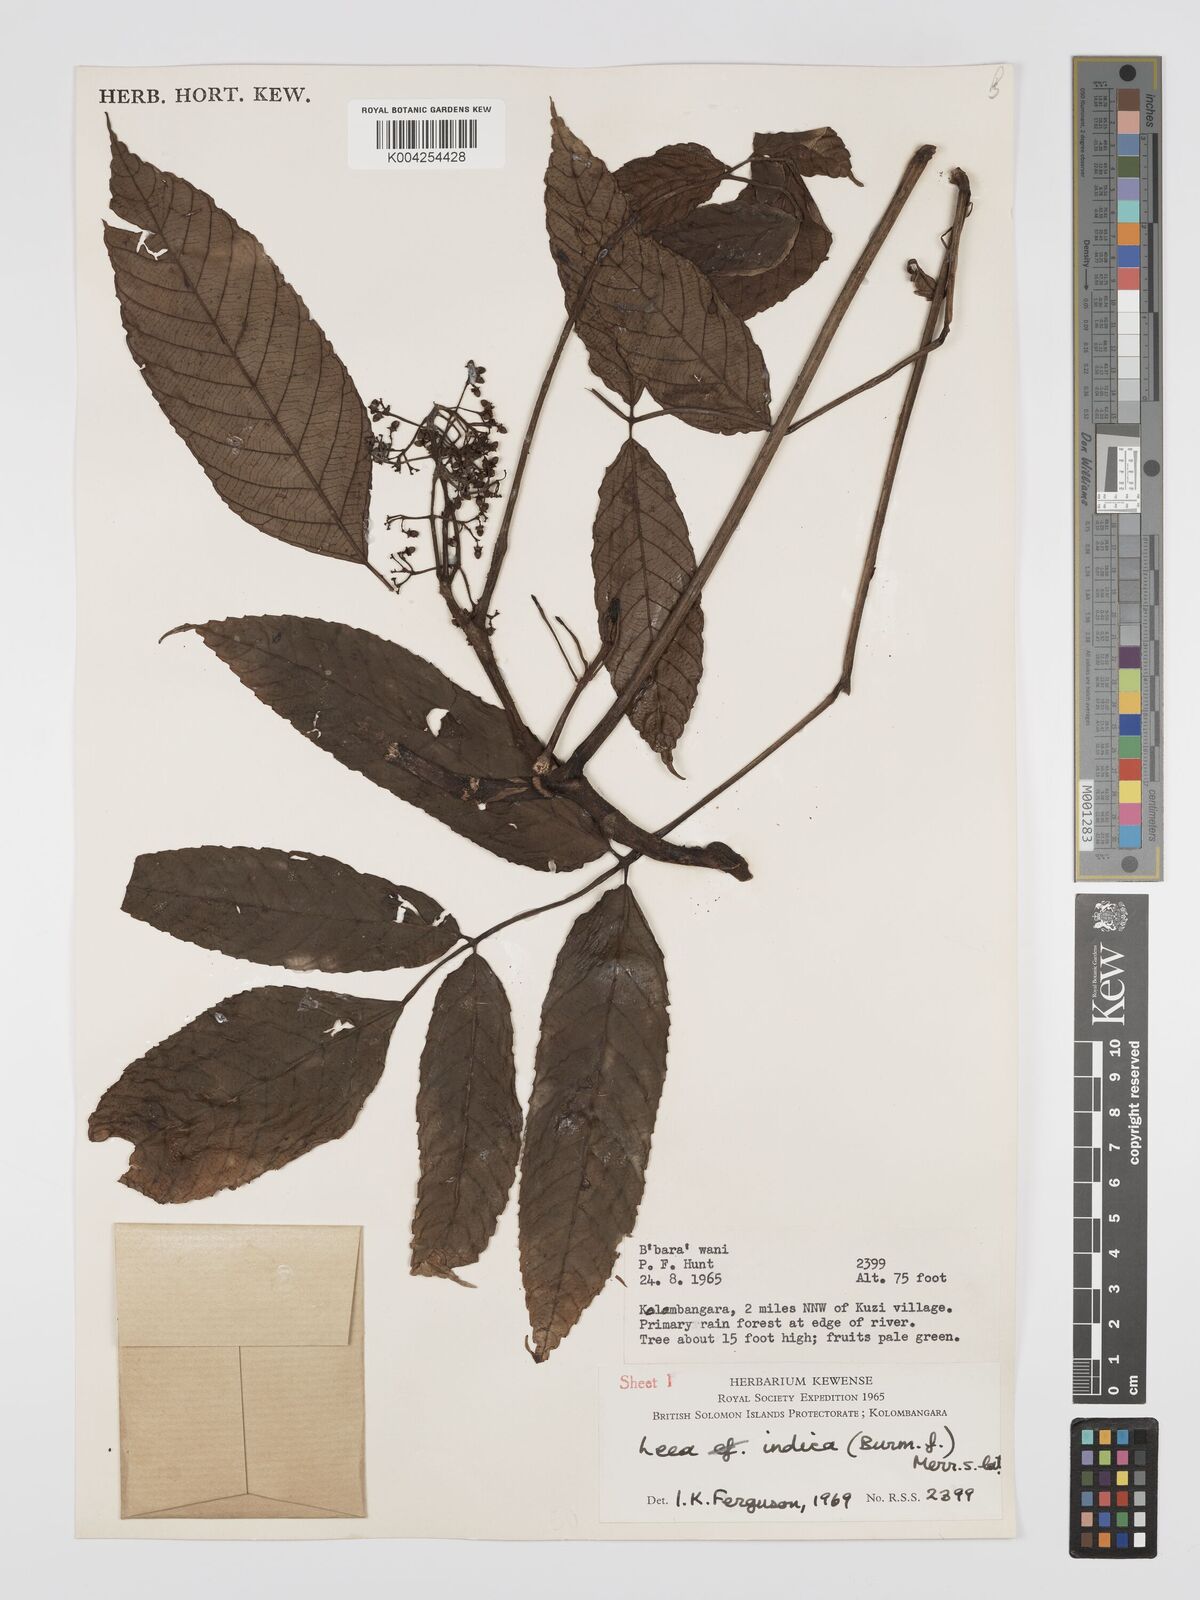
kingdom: Plantae
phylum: Tracheophyta
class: Magnoliopsida
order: Vitales
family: Vitaceae
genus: Leea
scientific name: Leea indica
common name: Bandicoot-berry
